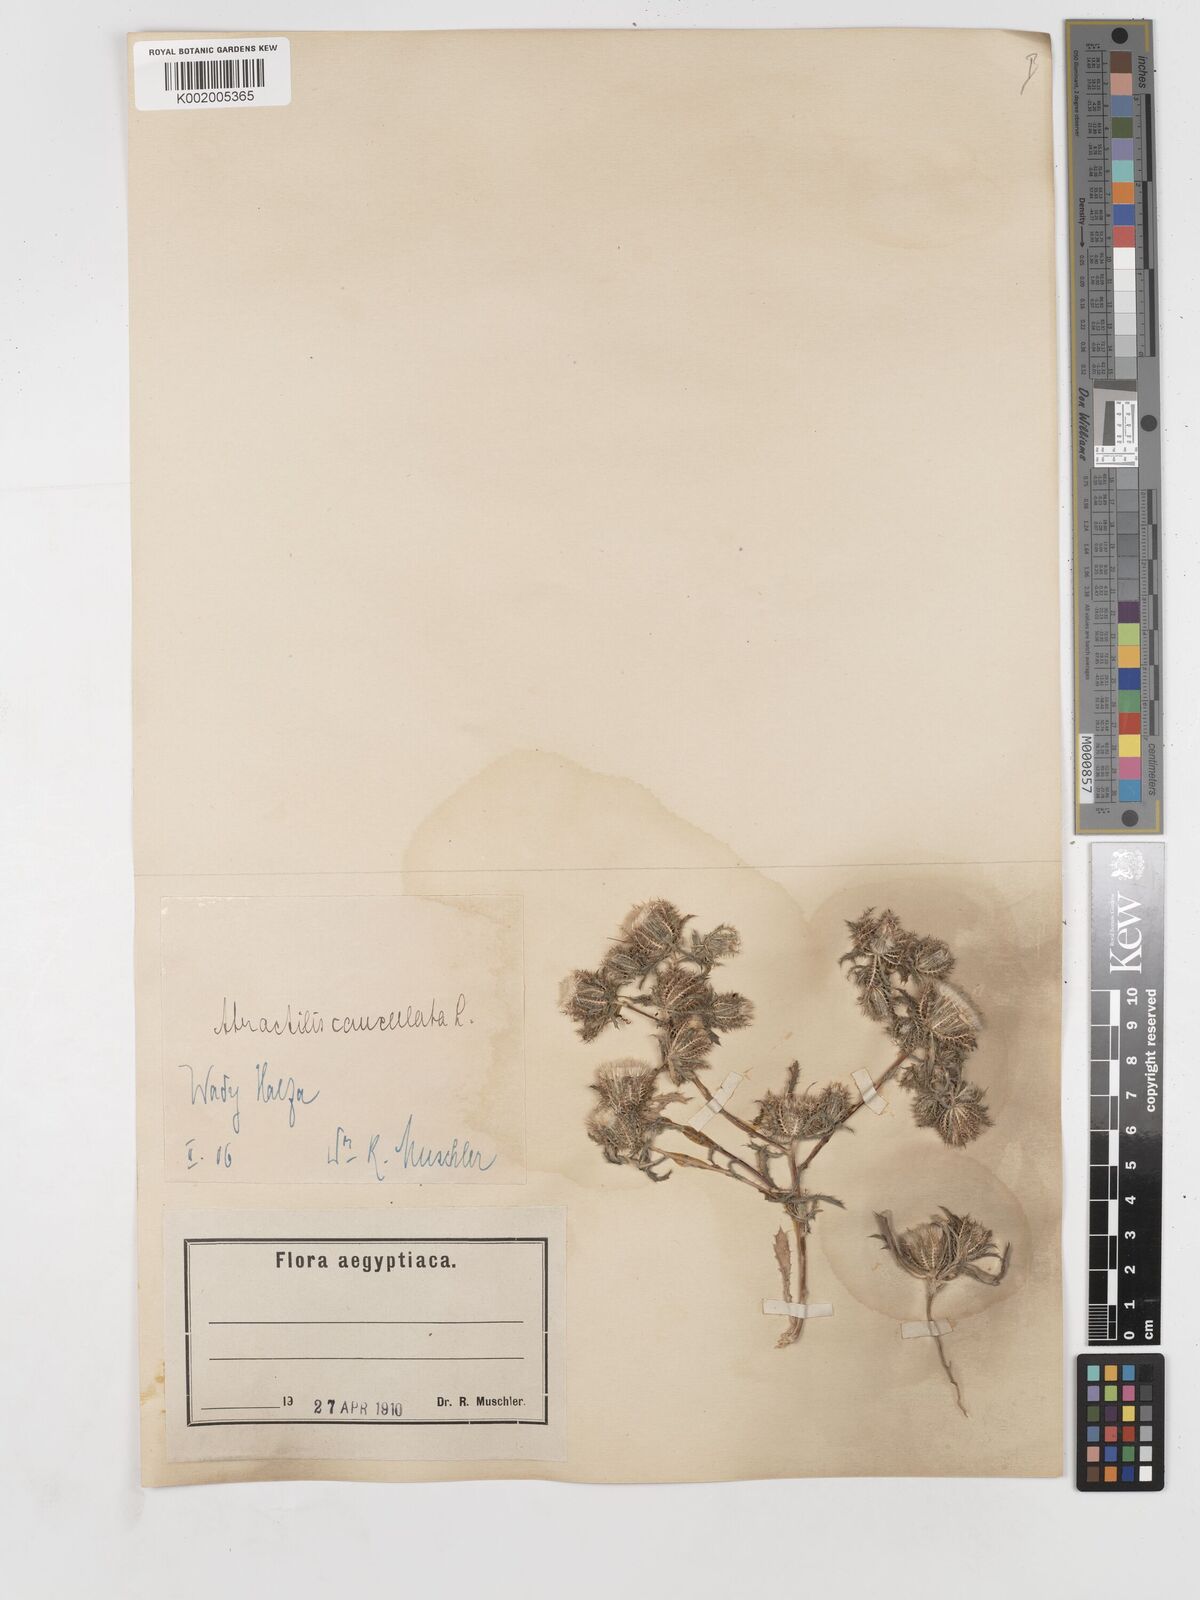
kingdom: Plantae
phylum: Tracheophyta
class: Magnoliopsida
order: Asterales
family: Asteraceae
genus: Atractylis
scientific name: Atractylis cancellata
